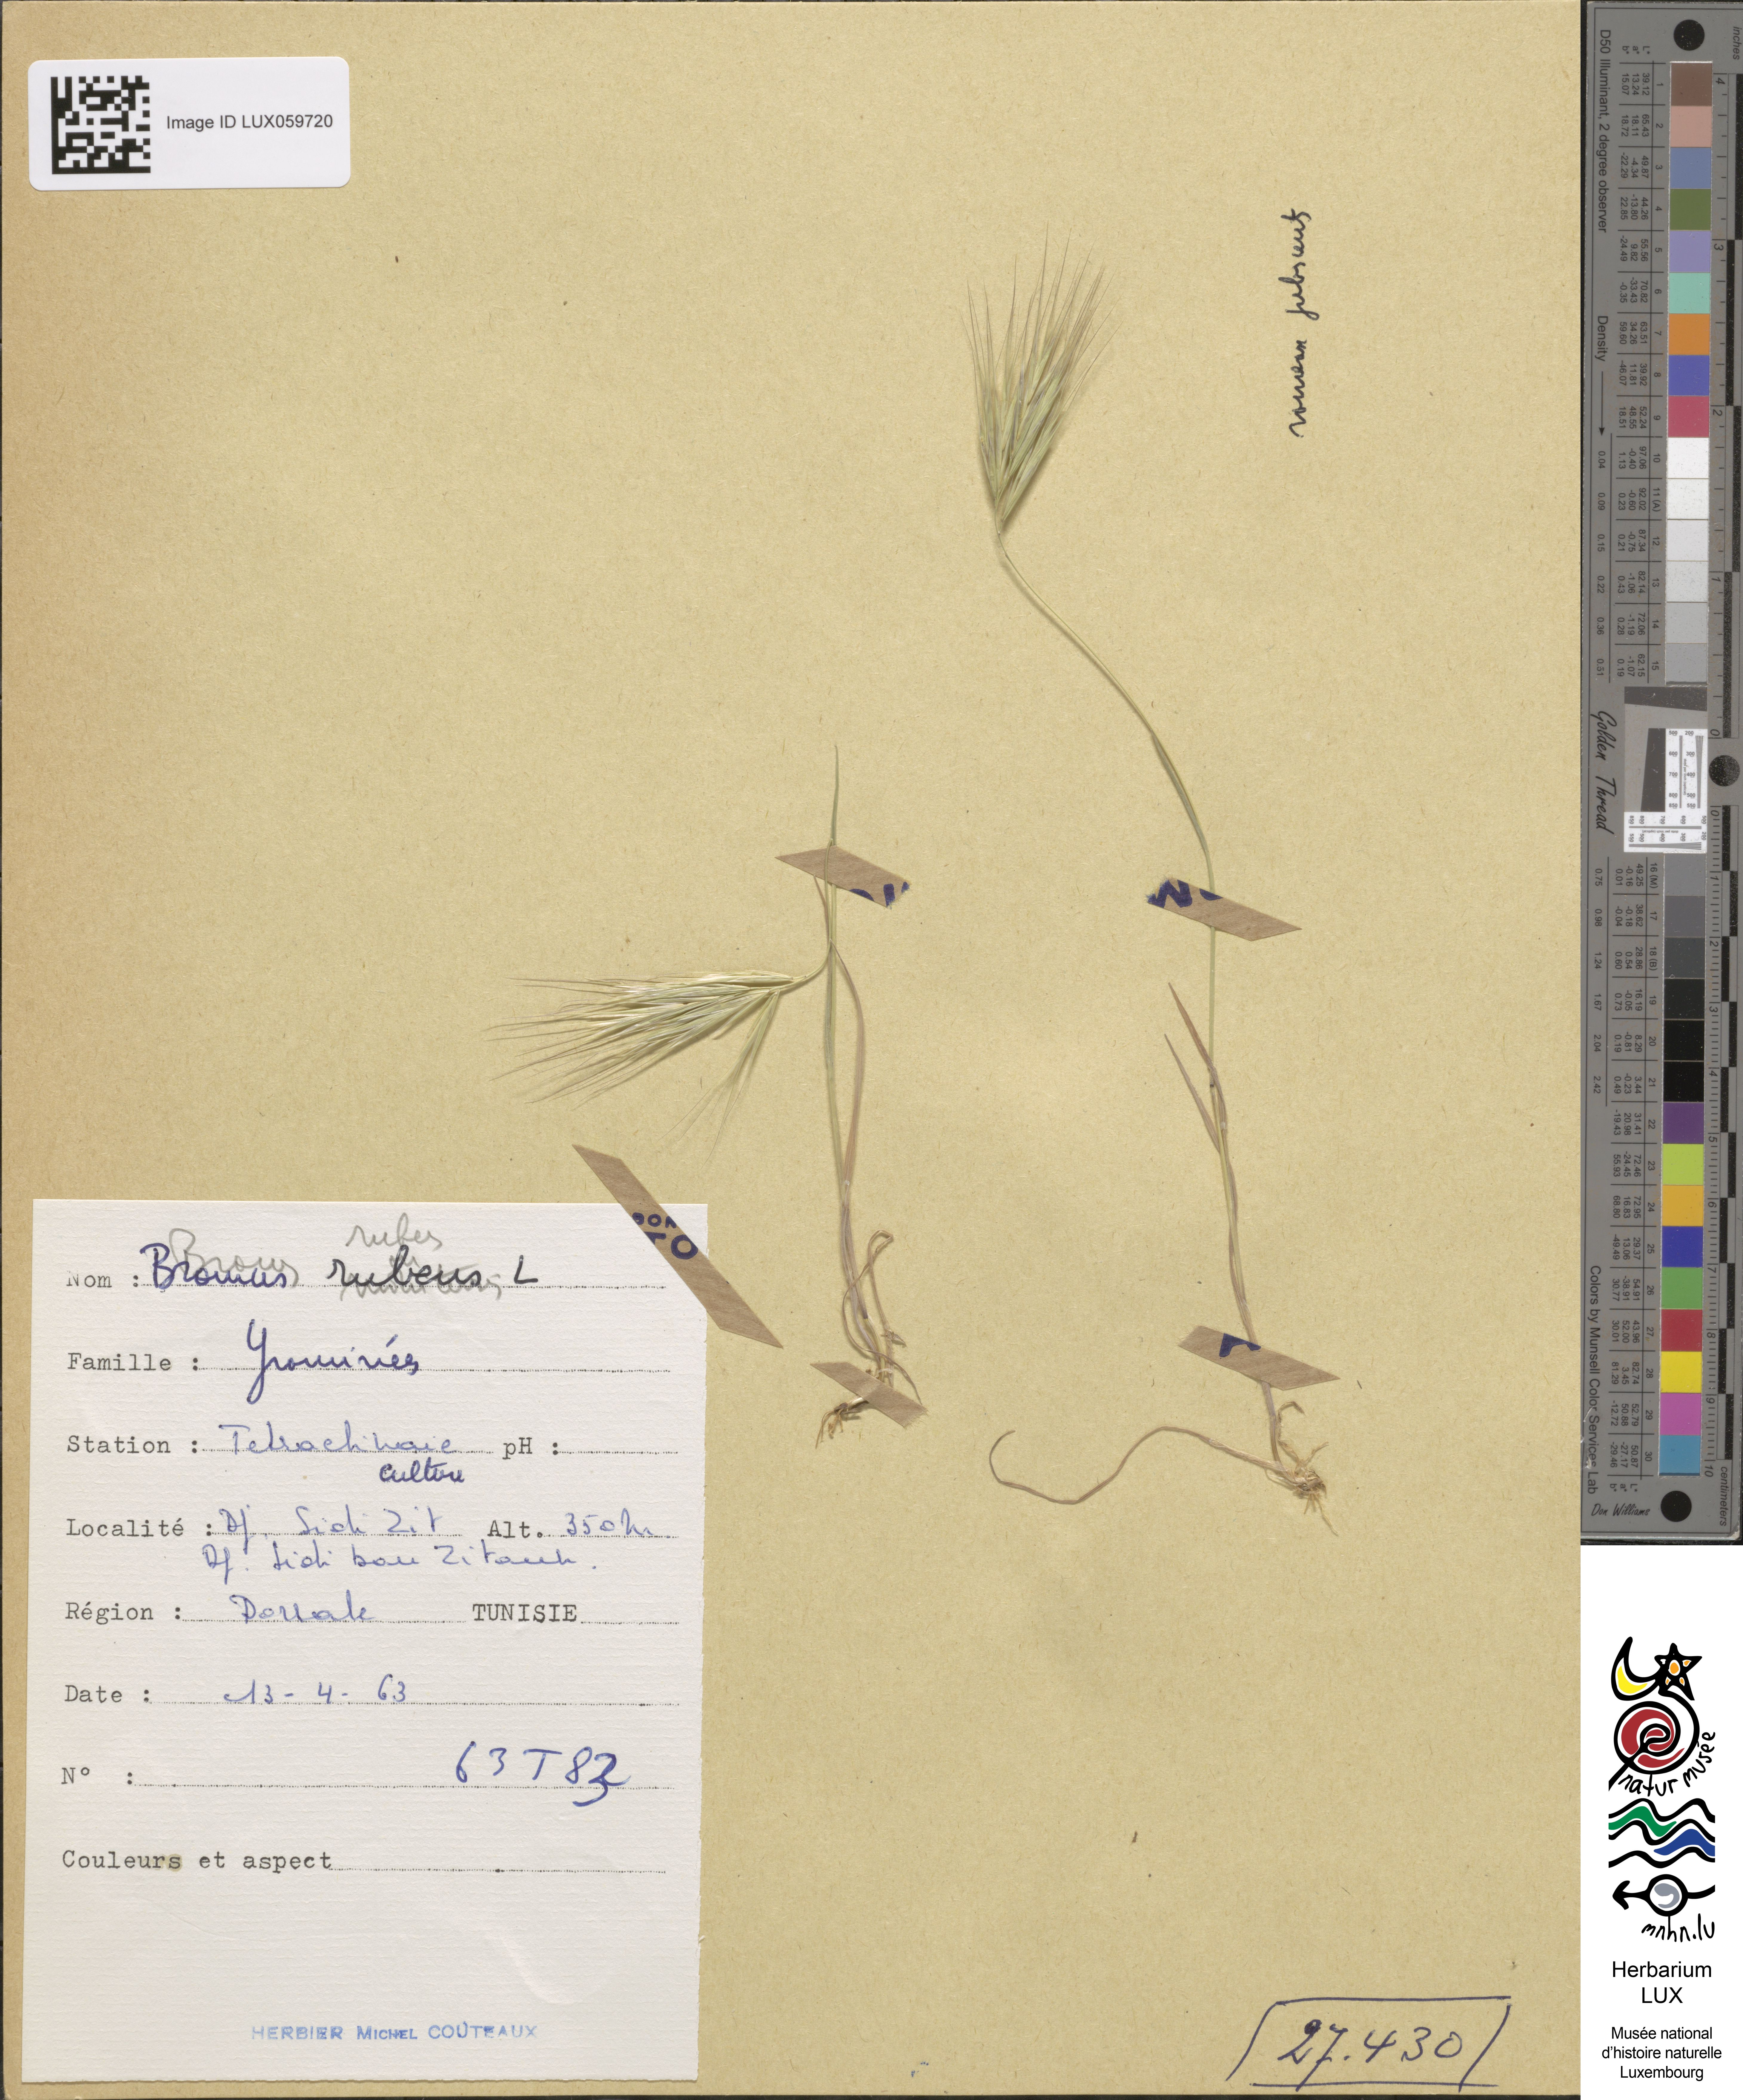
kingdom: Plantae
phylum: Tracheophyta
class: Liliopsida
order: Poales
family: Poaceae
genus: Bromus
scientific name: Bromus rubens
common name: Red brome
